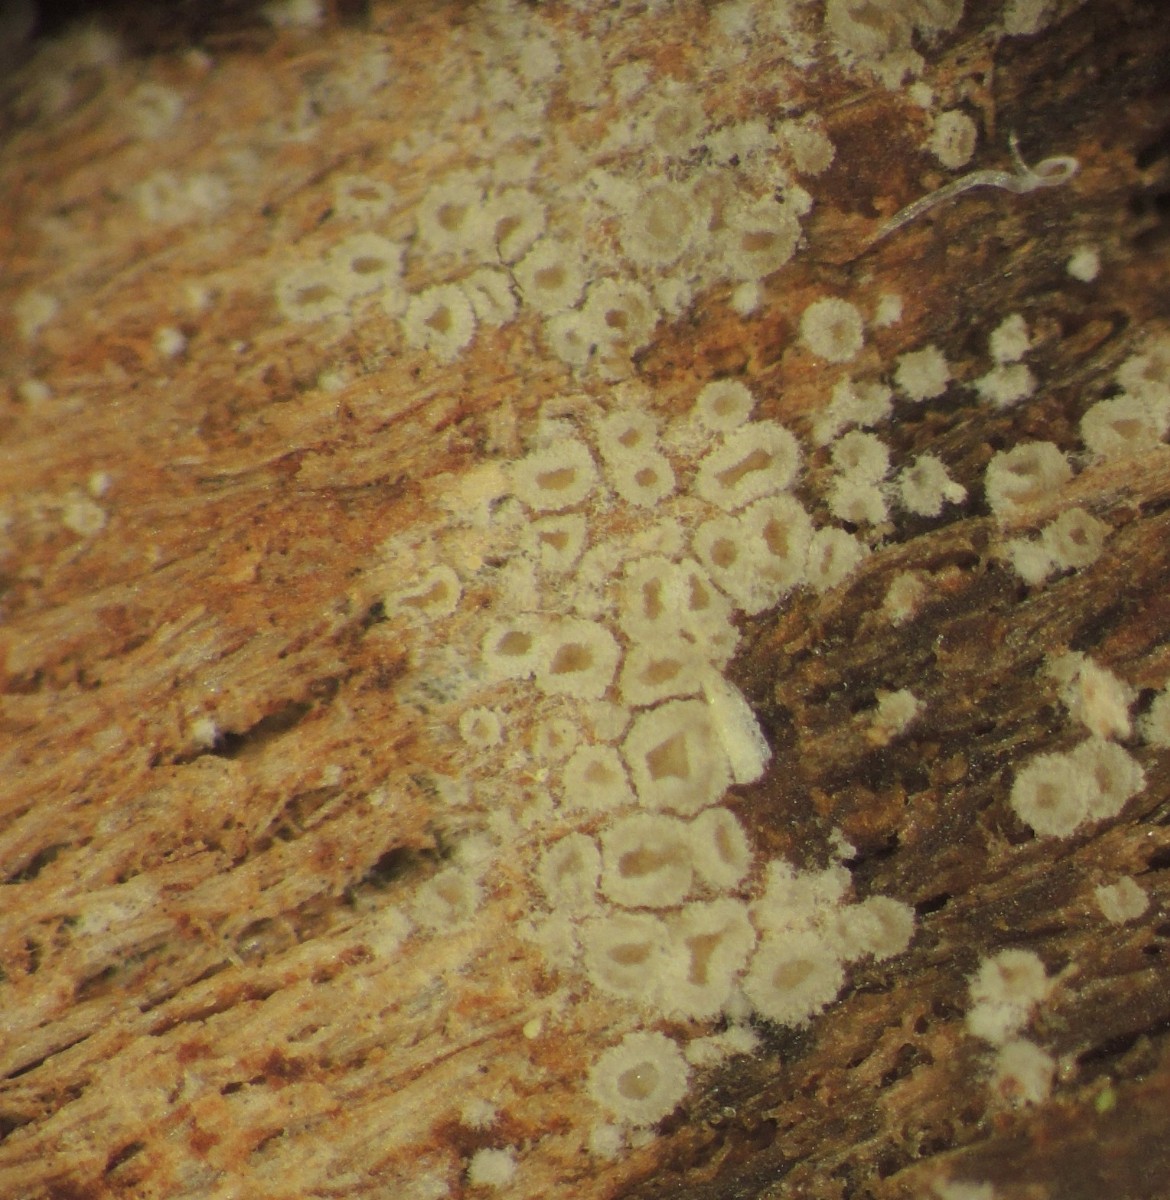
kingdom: Fungi
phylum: Basidiomycota
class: Agaricomycetes
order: Agaricales
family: Pleurotaceae
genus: Resupinatus
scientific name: Resupinatus poriaeformis
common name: tæpperør
